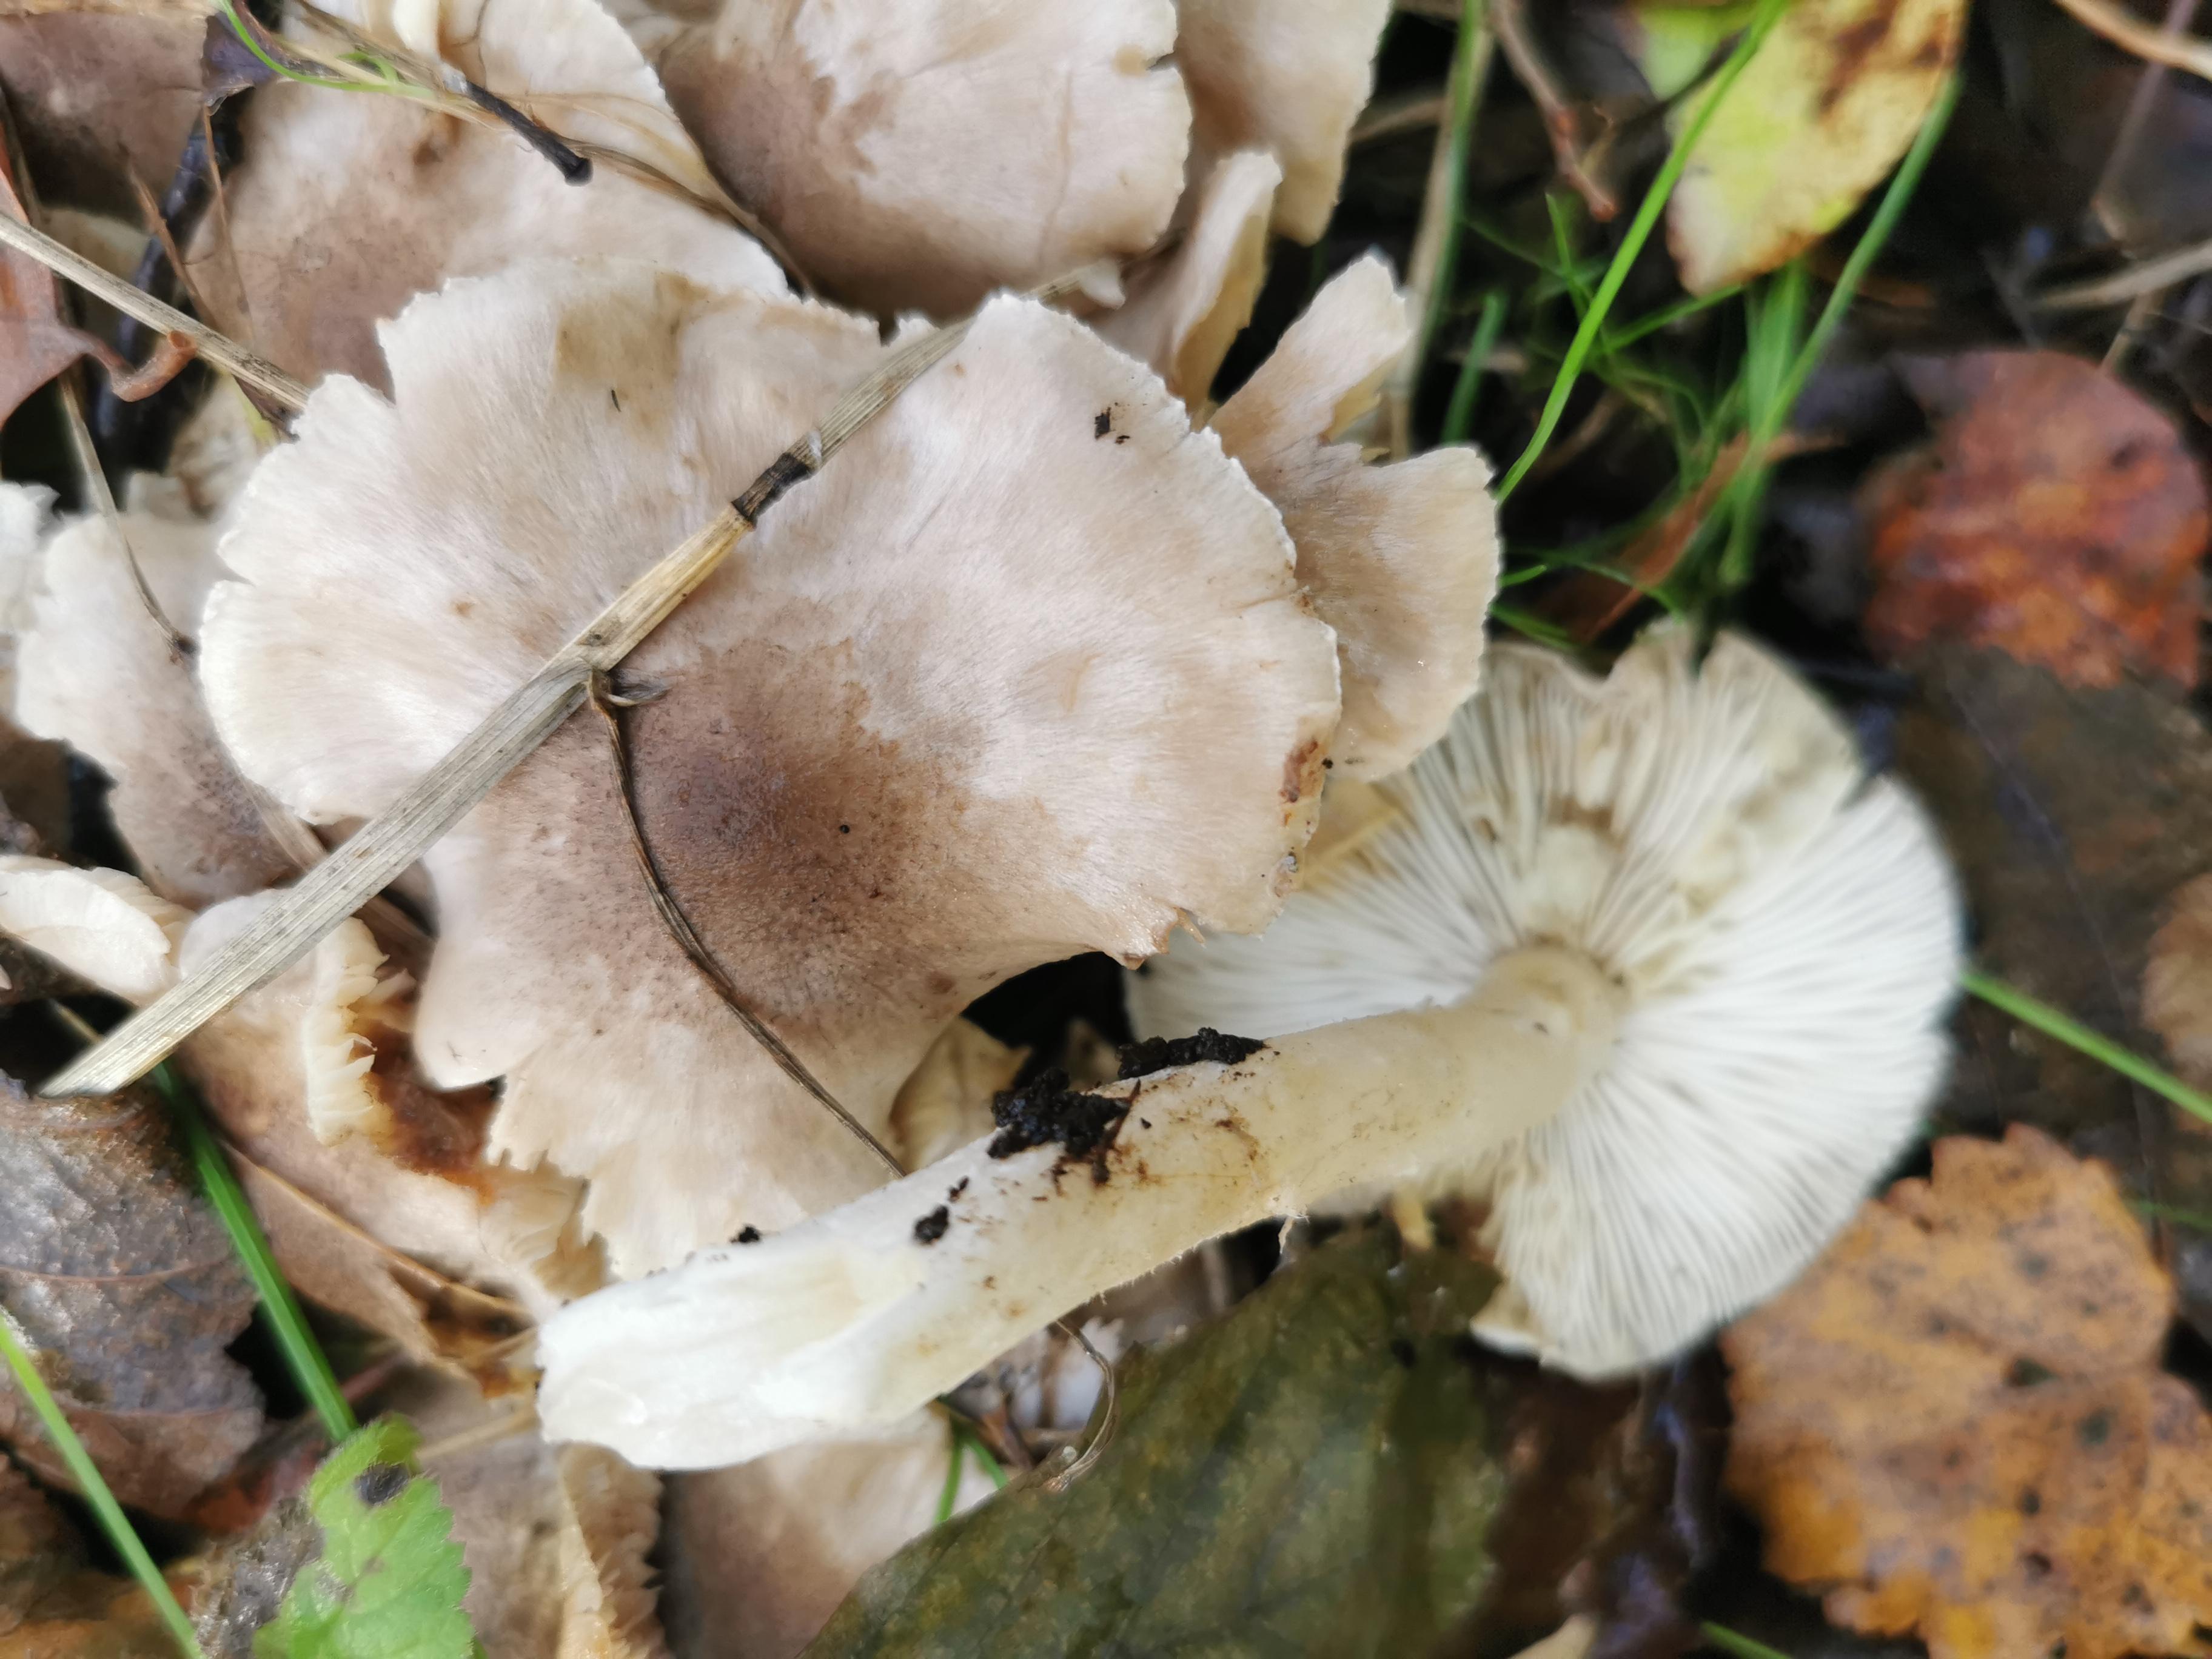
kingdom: Fungi
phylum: Basidiomycota
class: Agaricomycetes
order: Agaricales
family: Tricholomataceae
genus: Tricholoma
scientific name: Tricholoma cingulatum
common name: ring-ridderhat
